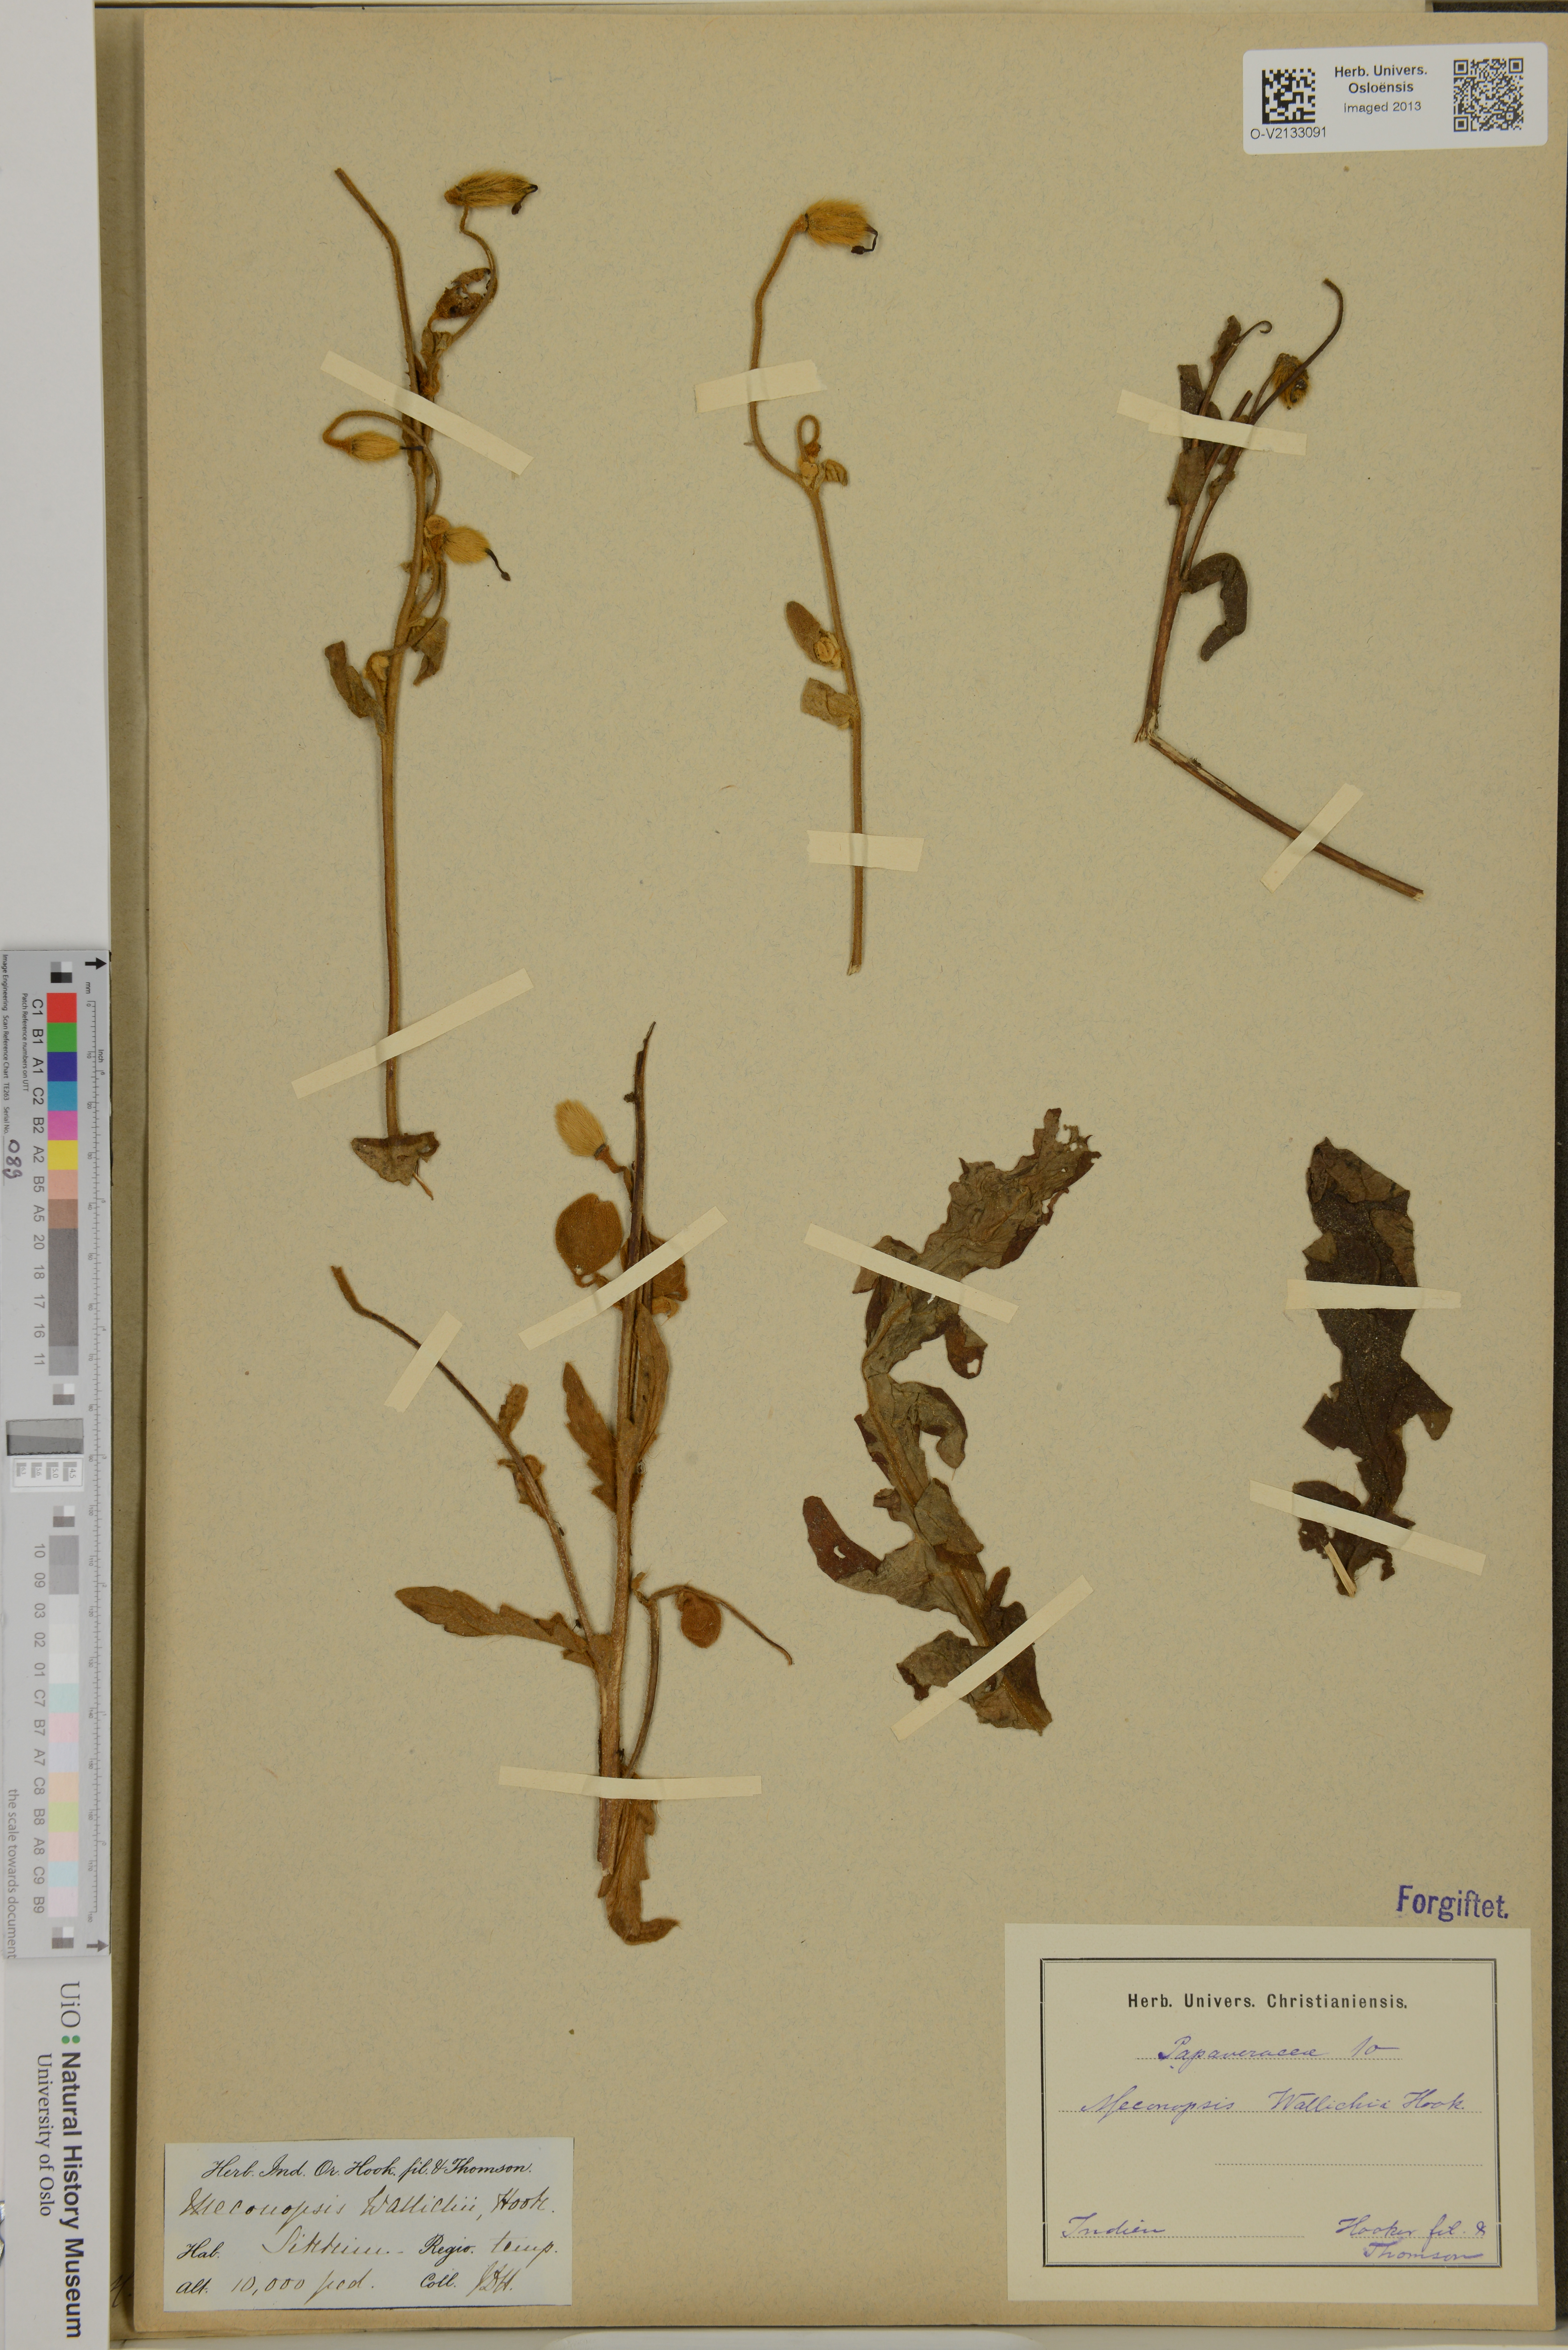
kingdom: Plantae
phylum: Tracheophyta
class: Magnoliopsida
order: Ranunculales
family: Papaveraceae
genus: Meconopsis
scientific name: Meconopsis wallichii
